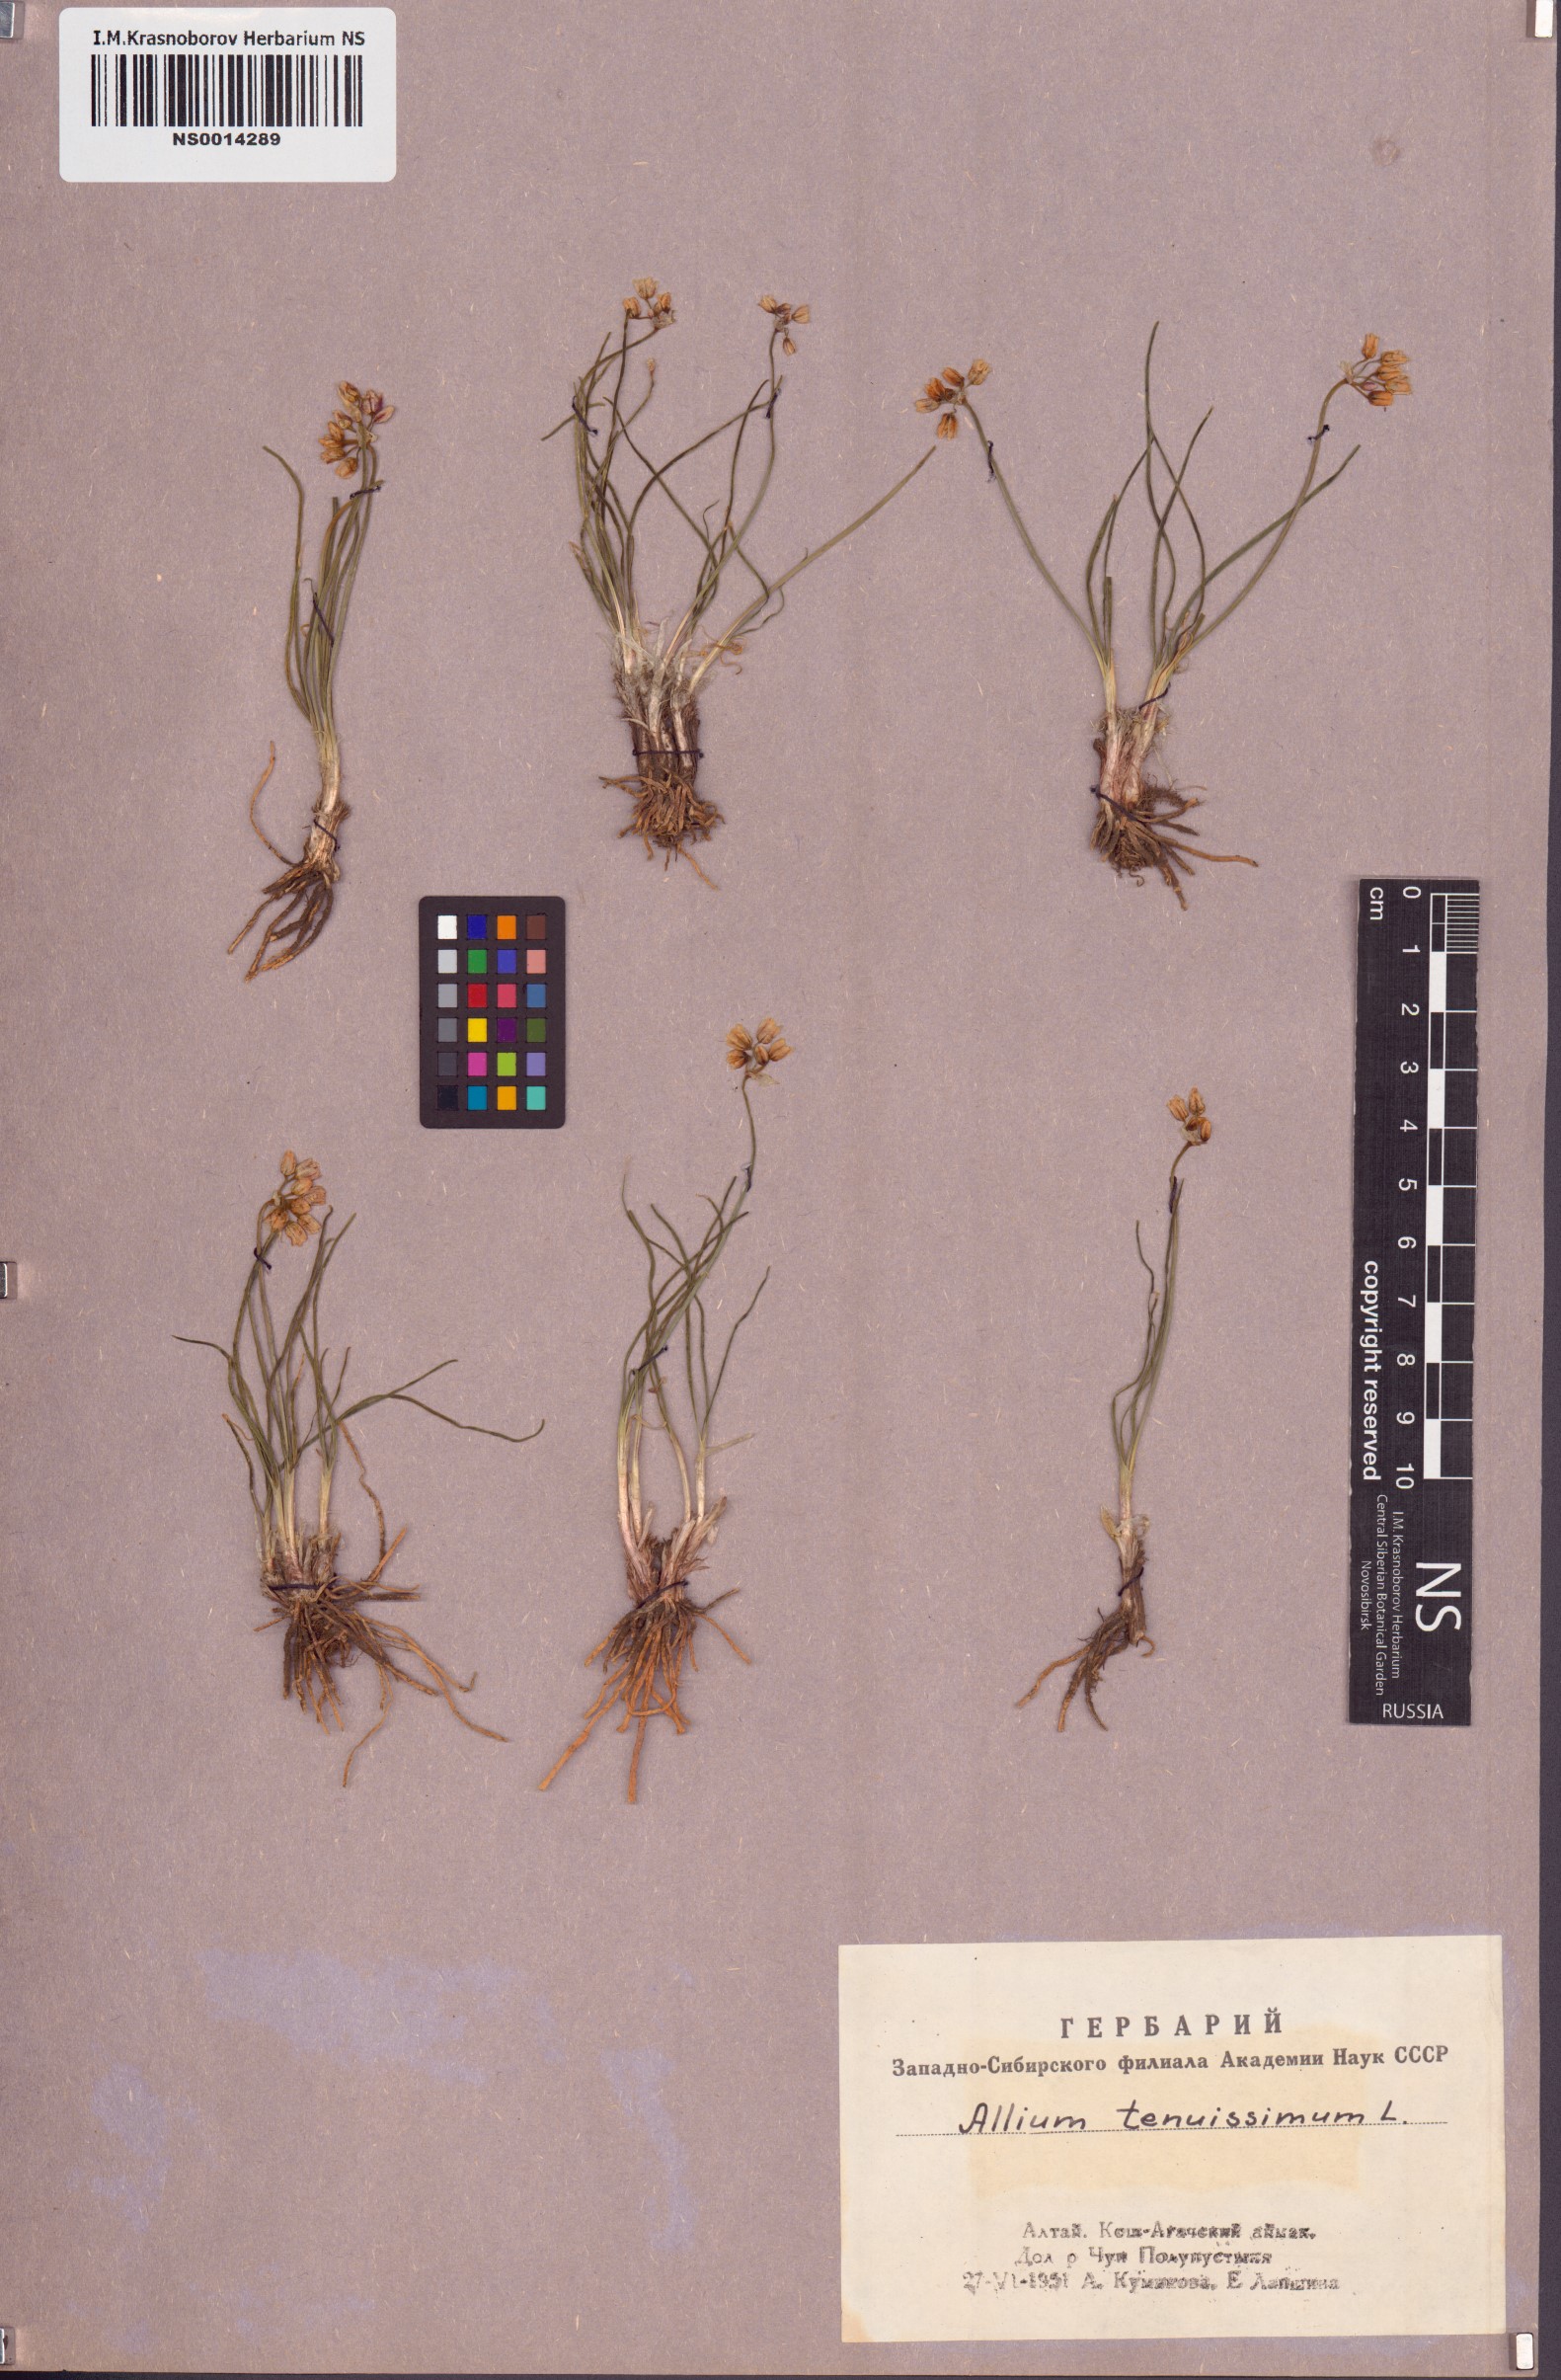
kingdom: Plantae
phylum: Tracheophyta
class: Liliopsida
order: Asparagales
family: Amaryllidaceae
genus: Allium
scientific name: Allium tenuissimum
